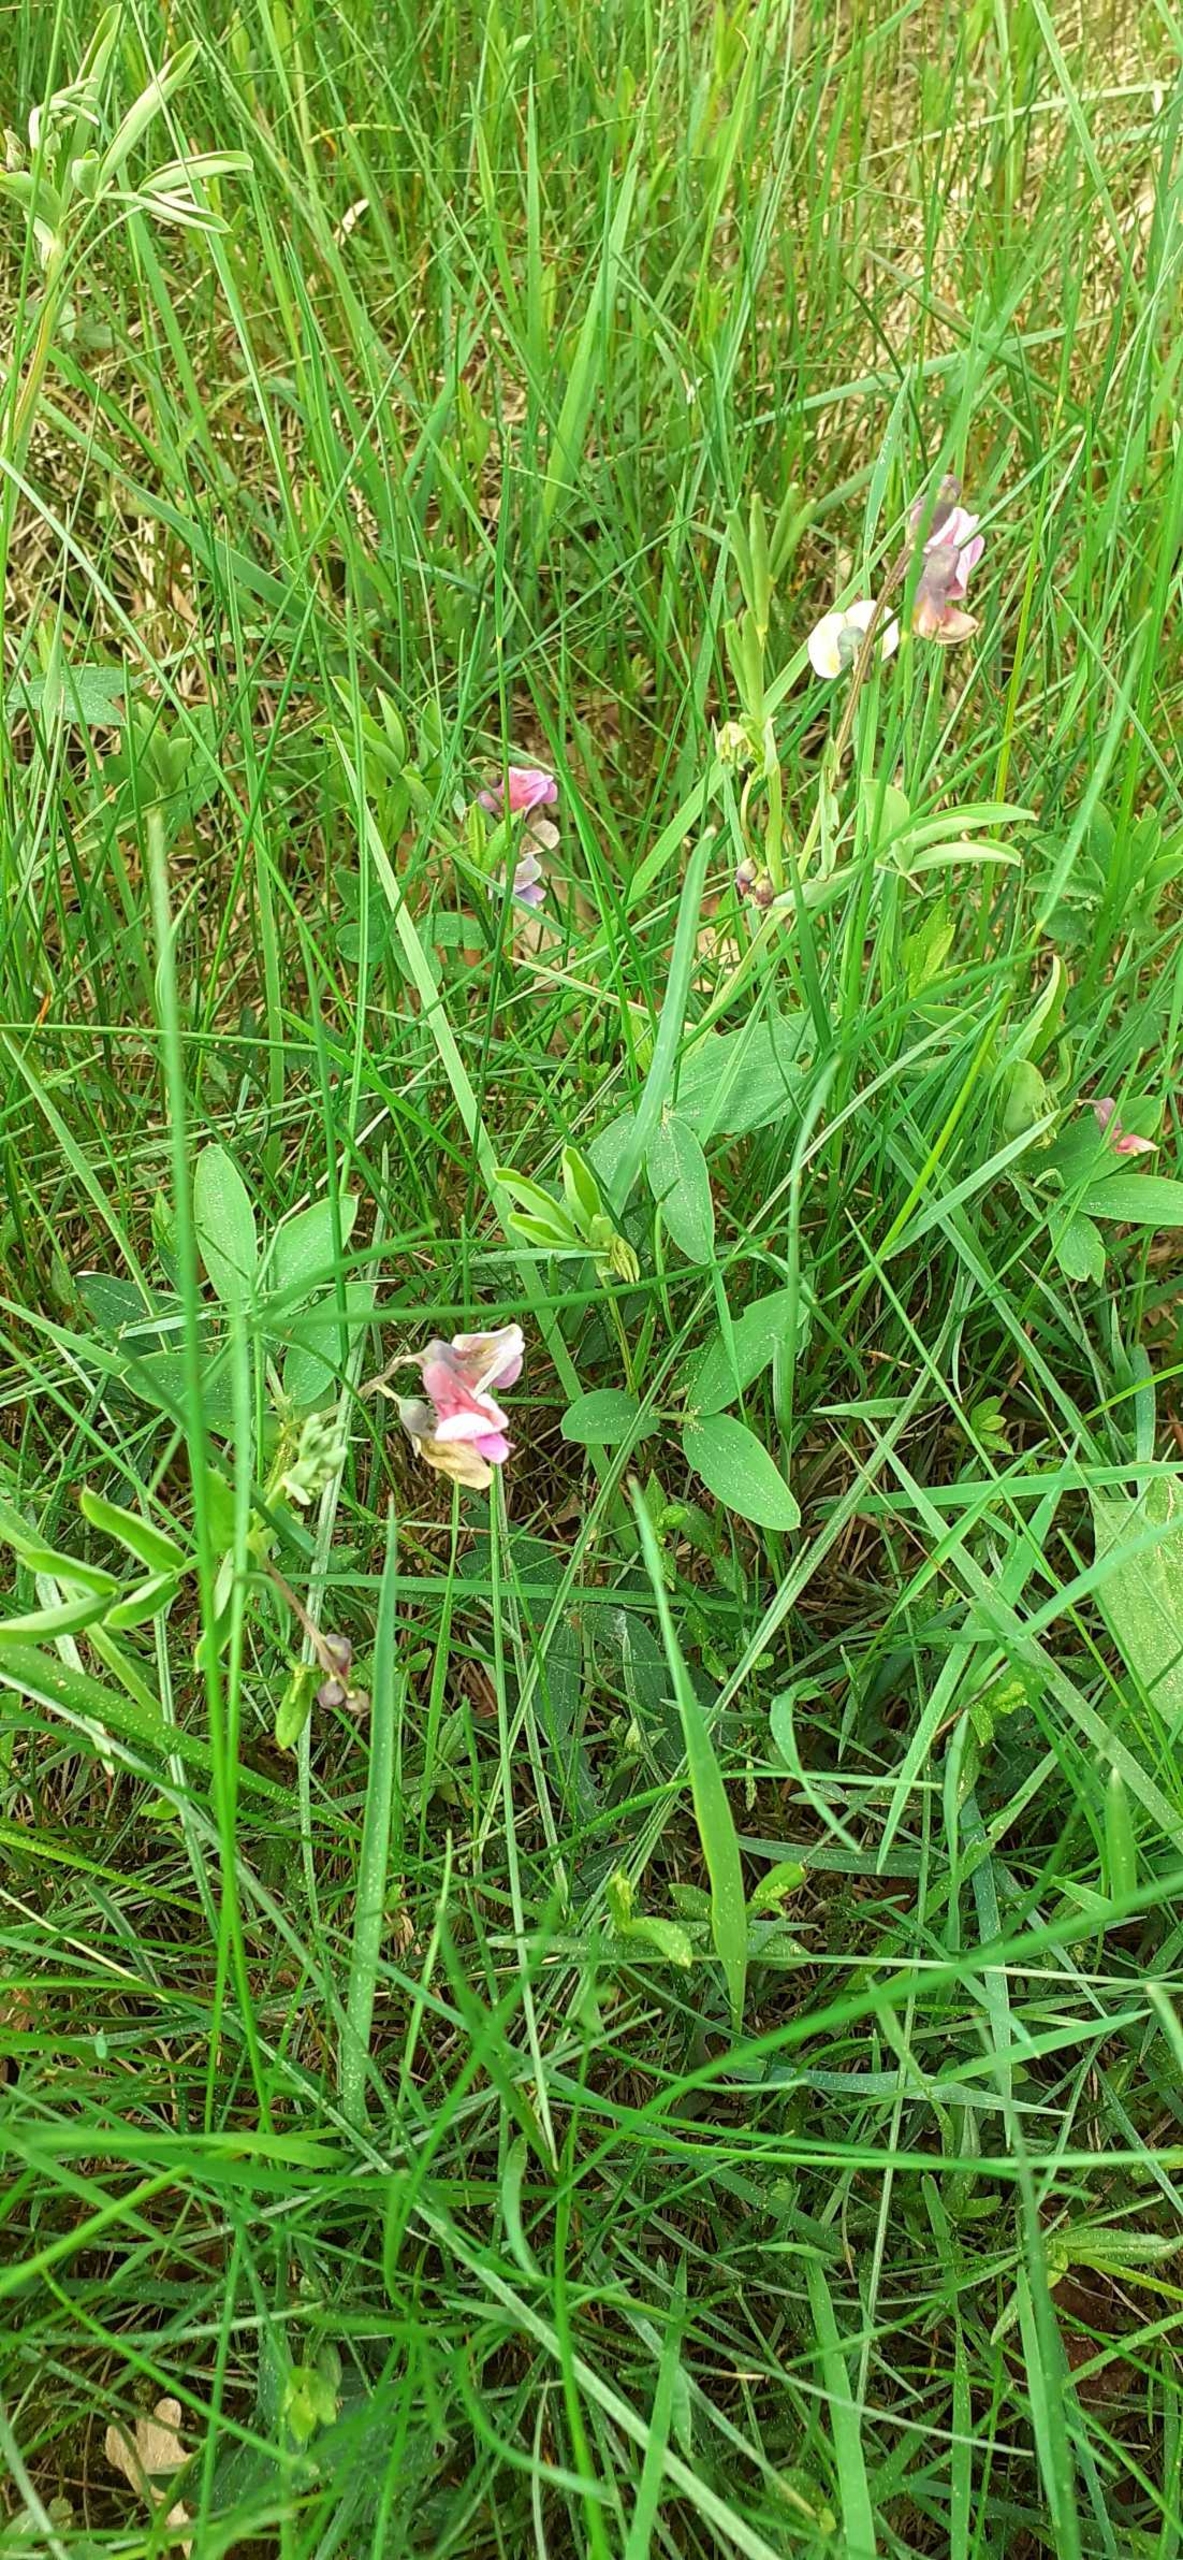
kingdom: Plantae
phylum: Tracheophyta
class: Magnoliopsida
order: Fabales
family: Fabaceae
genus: Lathyrus
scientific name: Lathyrus linifolius
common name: Krat-fladbælg
